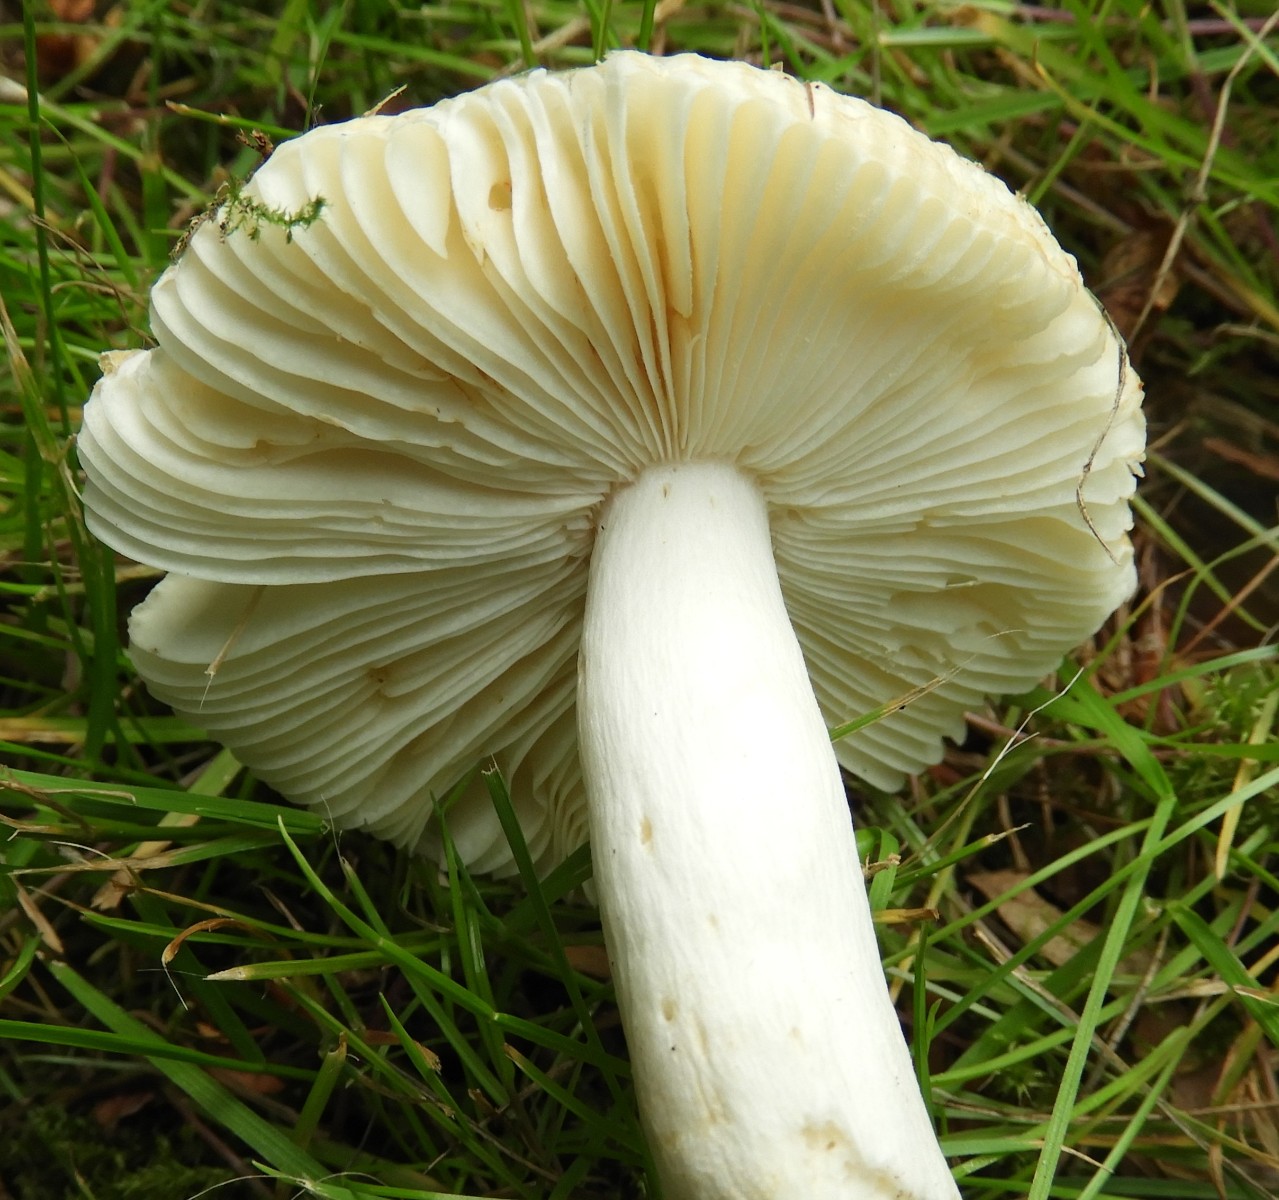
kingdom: Fungi
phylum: Basidiomycota
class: Agaricomycetes
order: Russulales
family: Russulaceae
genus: Russula
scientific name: Russula solaris
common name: sol-skørhat
